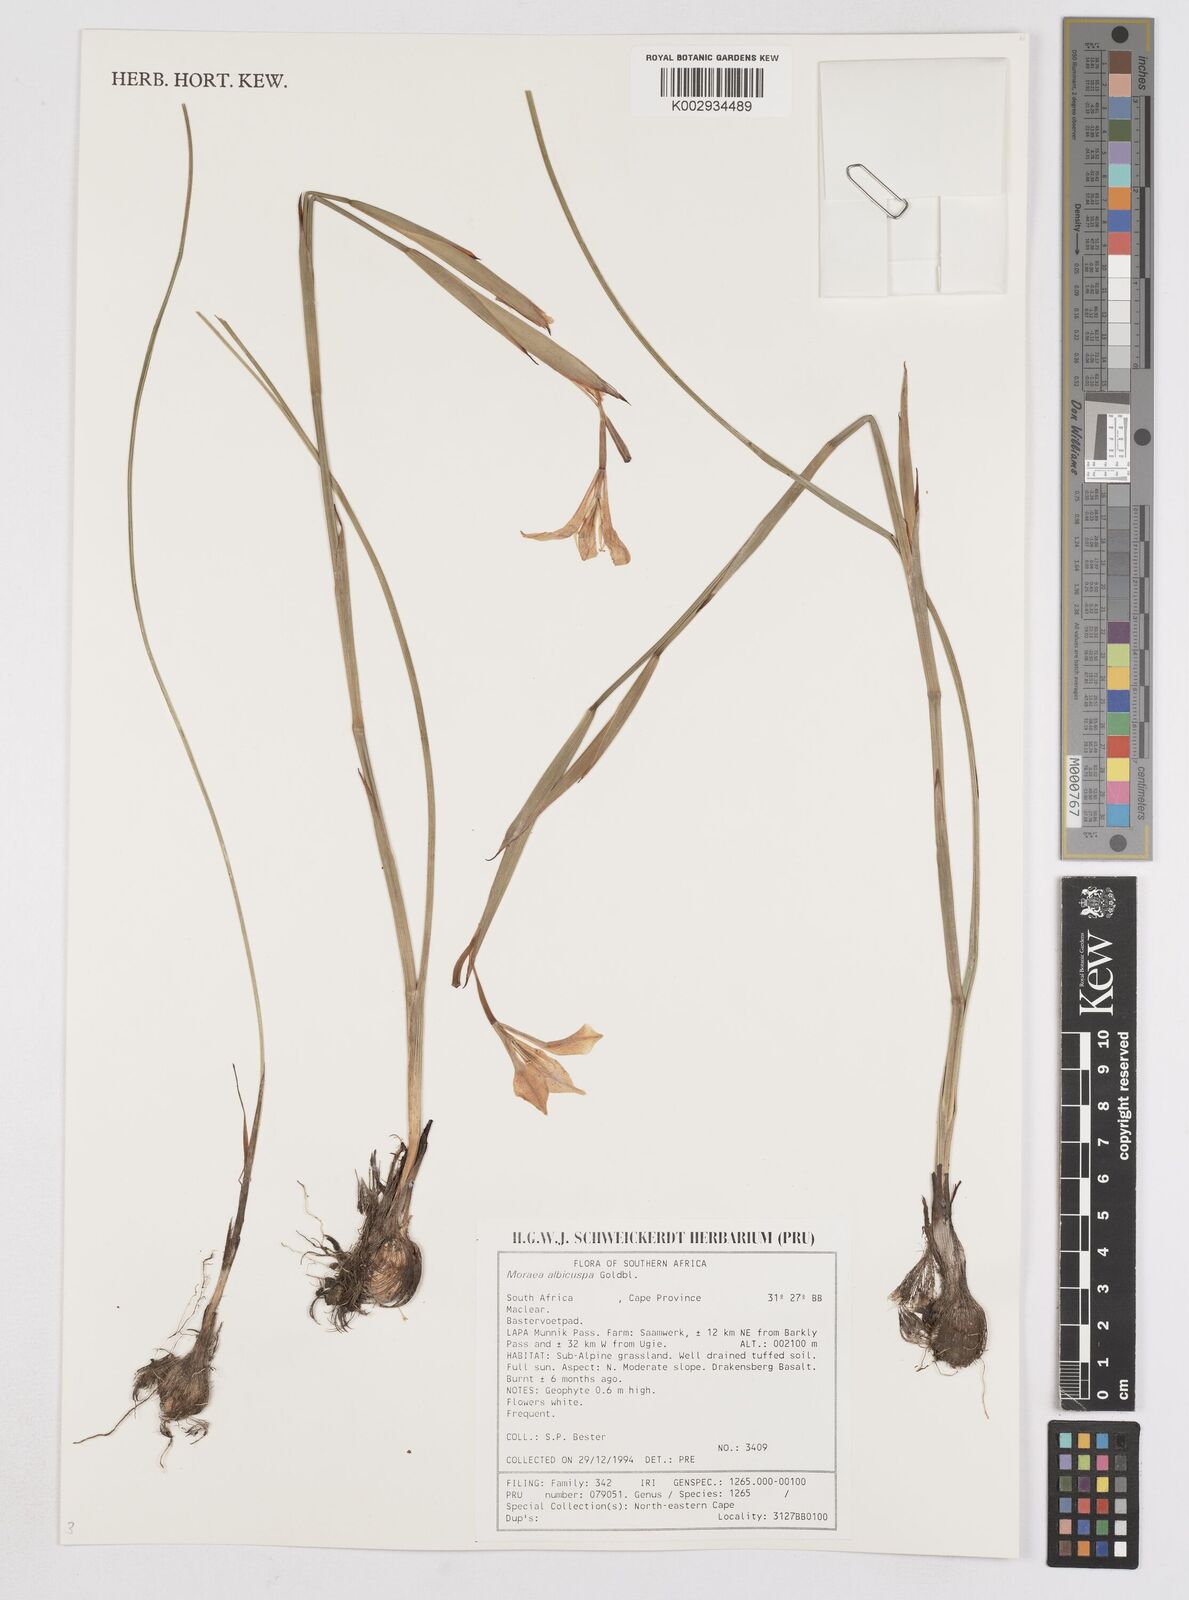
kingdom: Plantae
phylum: Tracheophyta
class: Liliopsida
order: Asparagales
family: Iridaceae
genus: Moraea
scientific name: Moraea albicuspa
